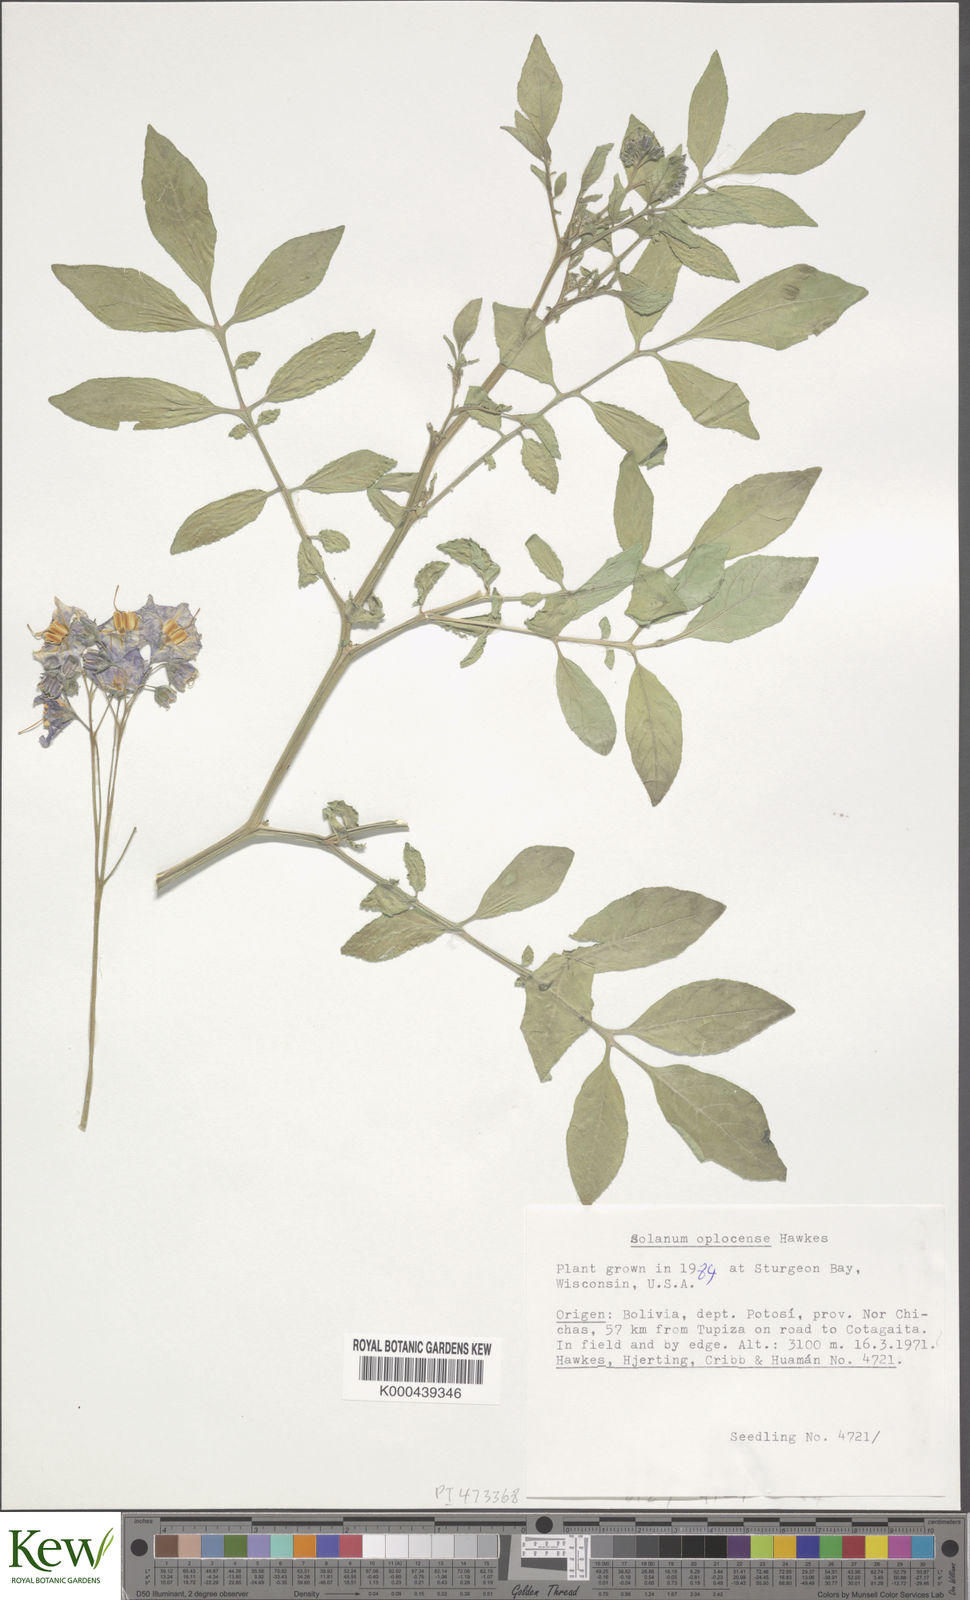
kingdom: Plantae
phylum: Tracheophyta
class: Magnoliopsida
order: Solanales
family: Solanaceae
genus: Solanum
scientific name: Solanum brevicaule
